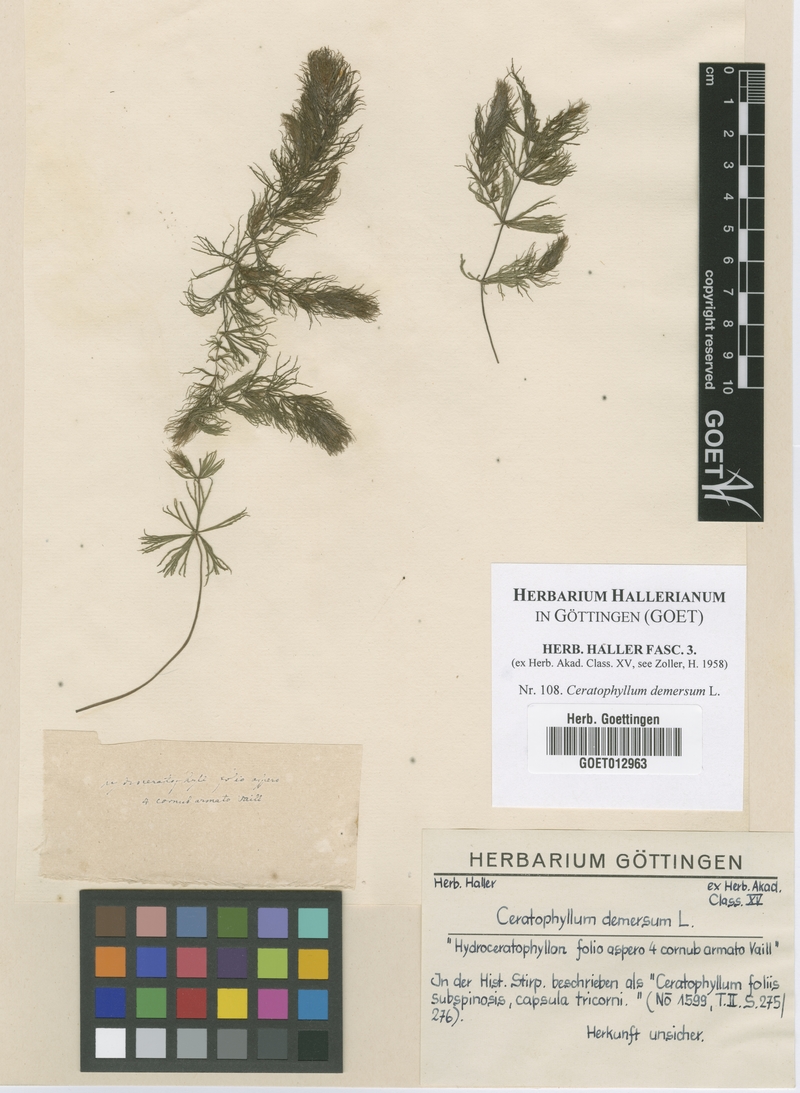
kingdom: Plantae
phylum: Tracheophyta
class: Magnoliopsida
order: Ceratophyllales
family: Ceratophyllaceae
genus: Ceratophyllum
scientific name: Ceratophyllum demersum
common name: Rigid hornwort
